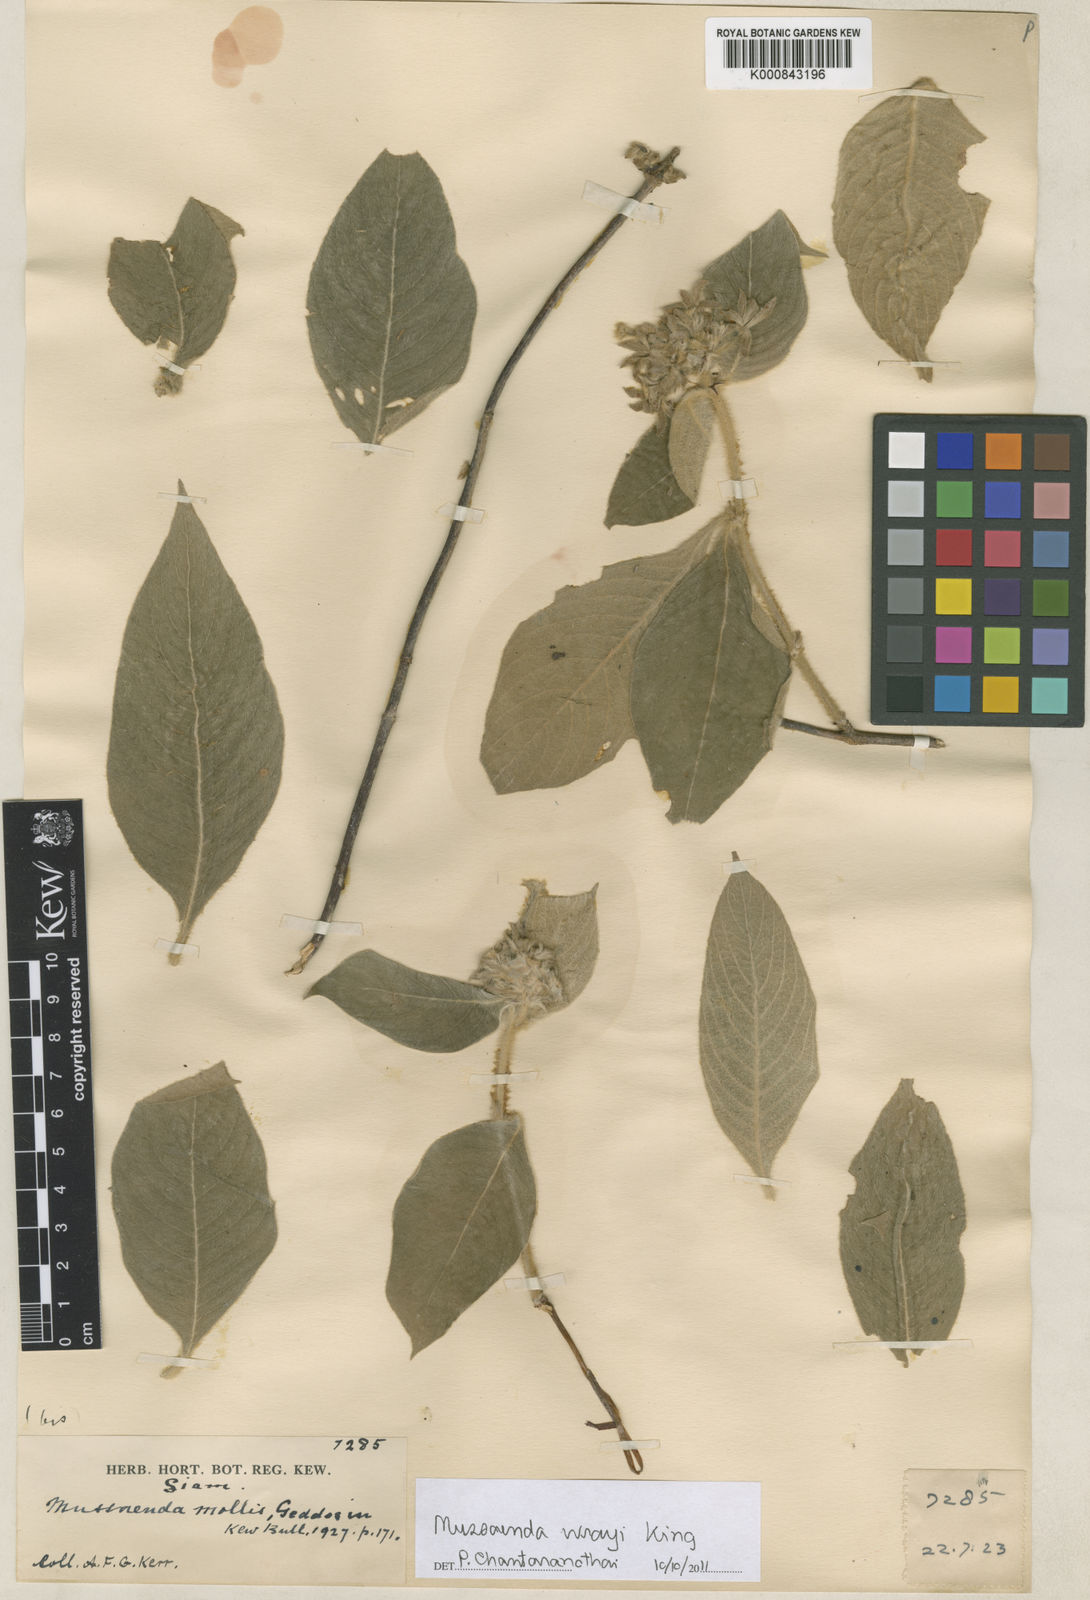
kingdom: Plantae
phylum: Tracheophyta
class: Magnoliopsida
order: Gentianales
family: Rubiaceae
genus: Mussaenda
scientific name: Mussaenda wrayi
